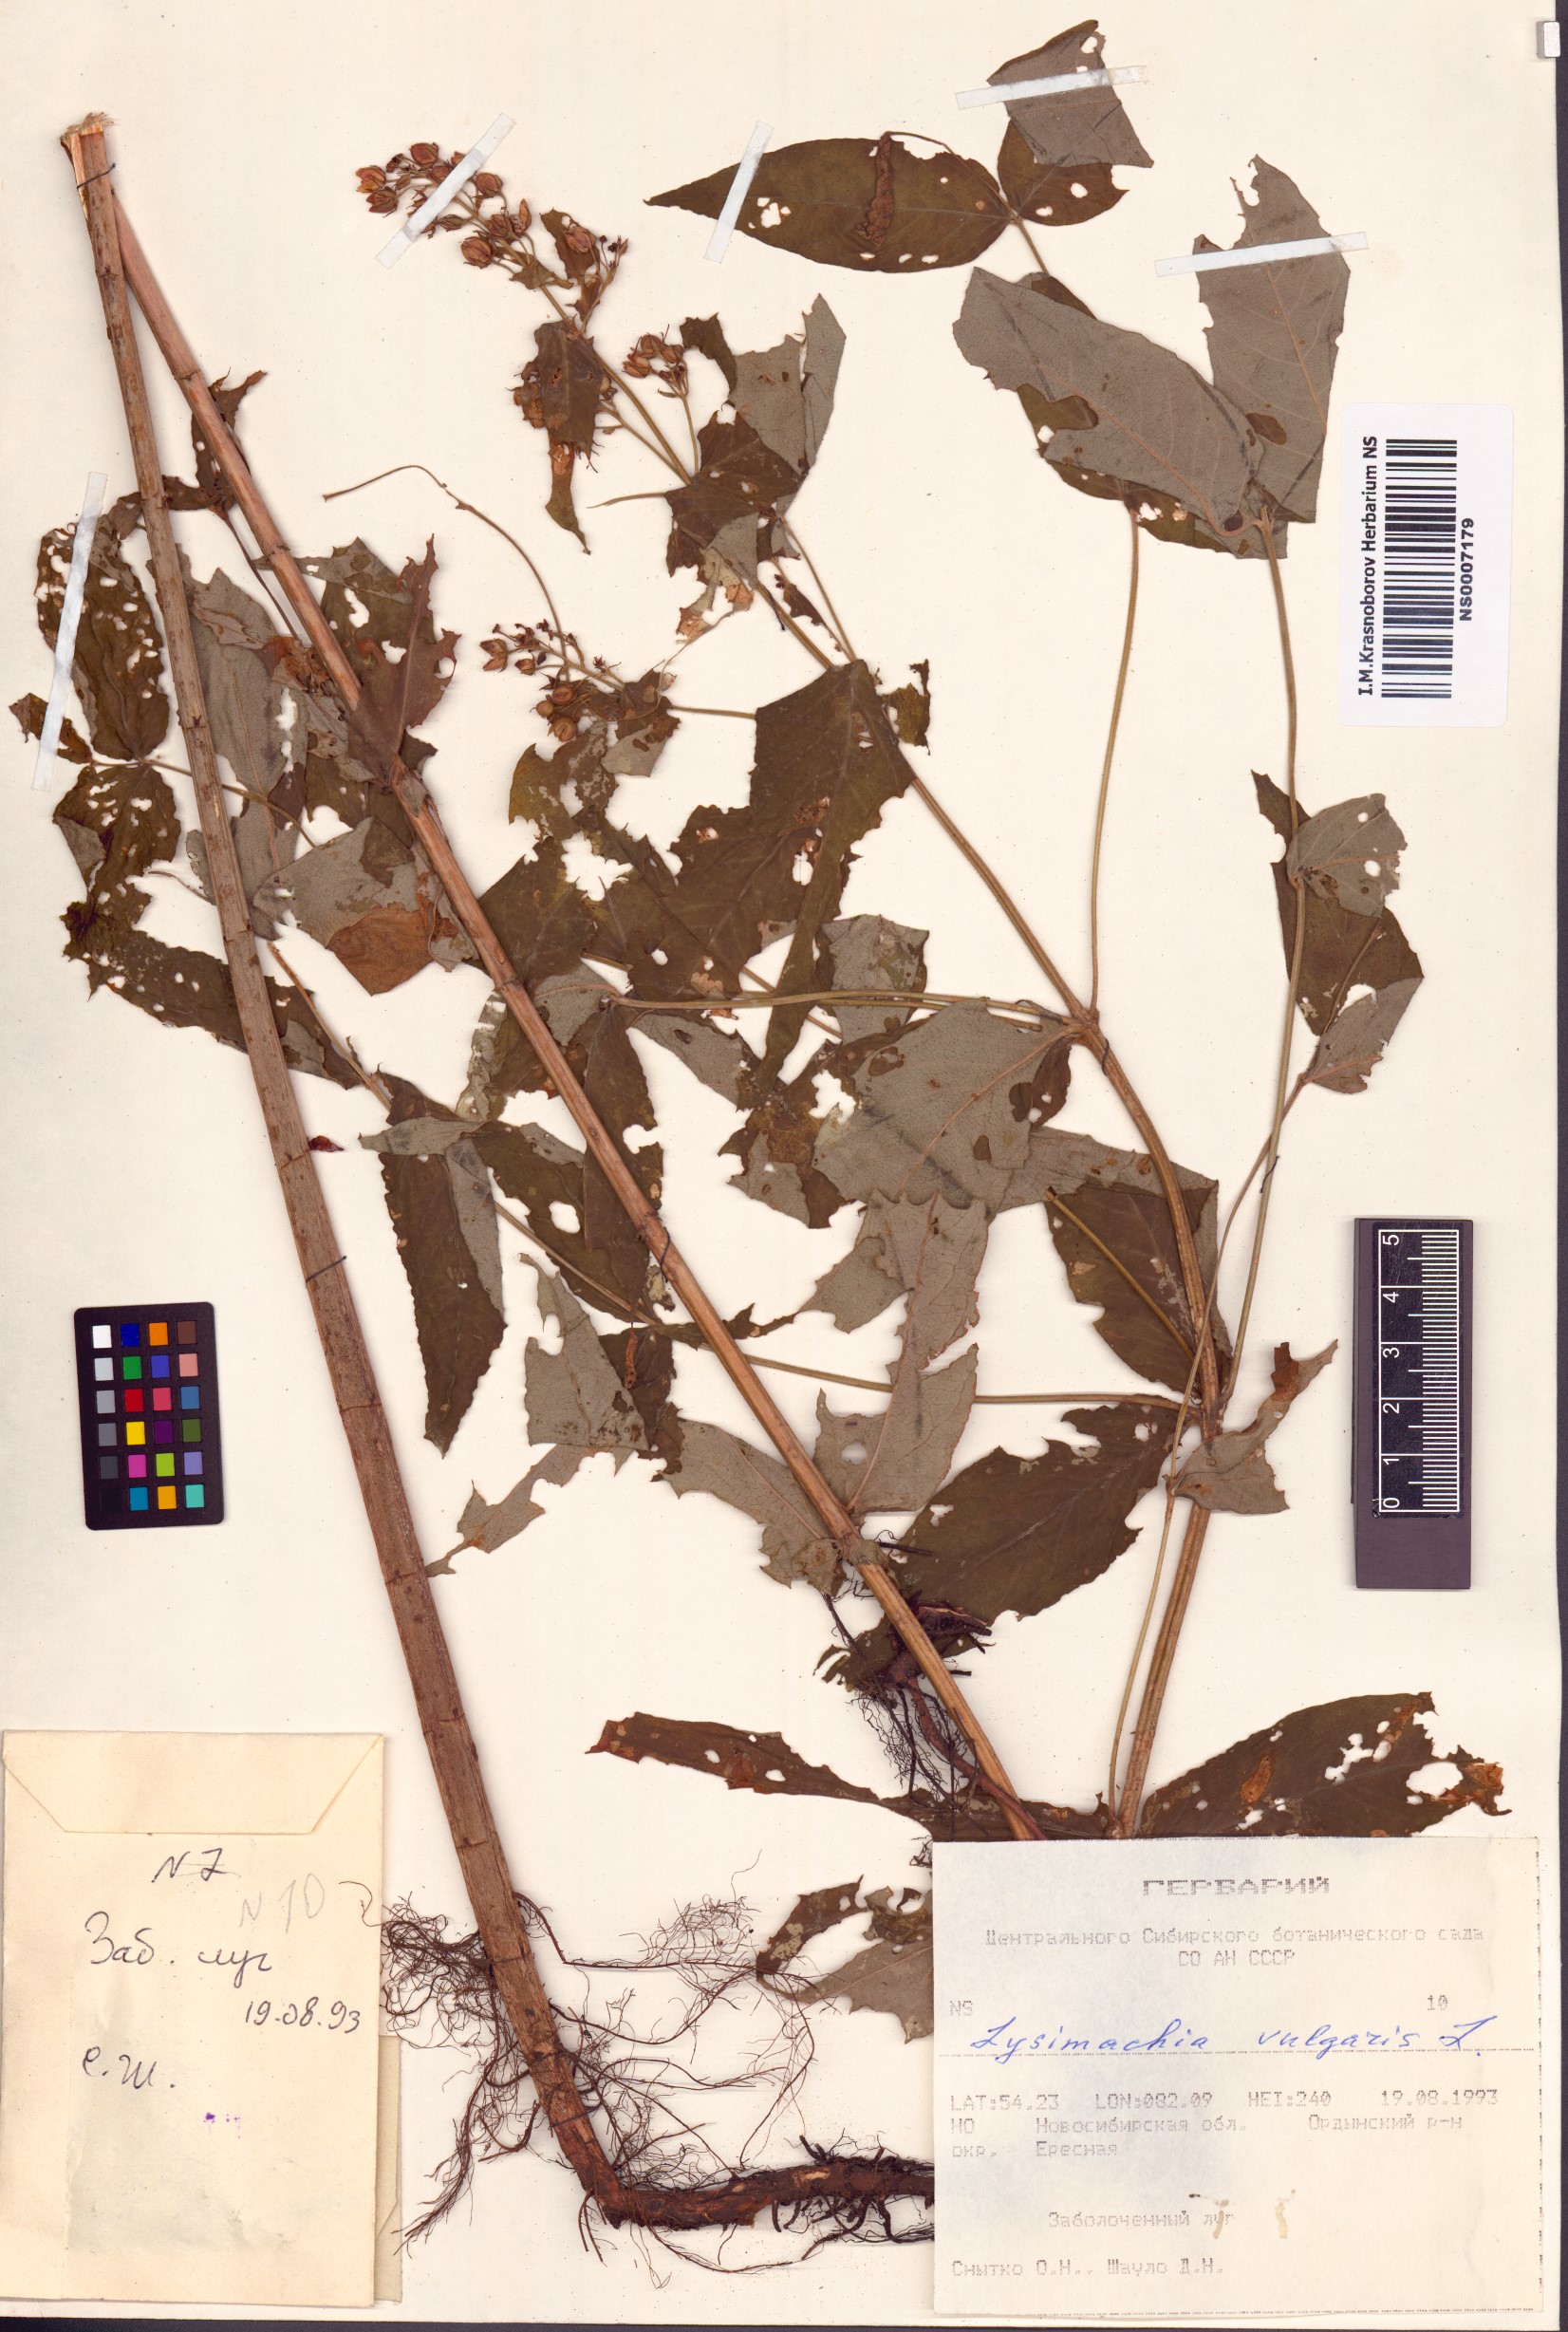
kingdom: Plantae
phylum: Tracheophyta
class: Magnoliopsida
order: Ericales
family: Primulaceae
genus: Lysimachia
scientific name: Lysimachia vulgaris
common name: Yellow loosestrife
